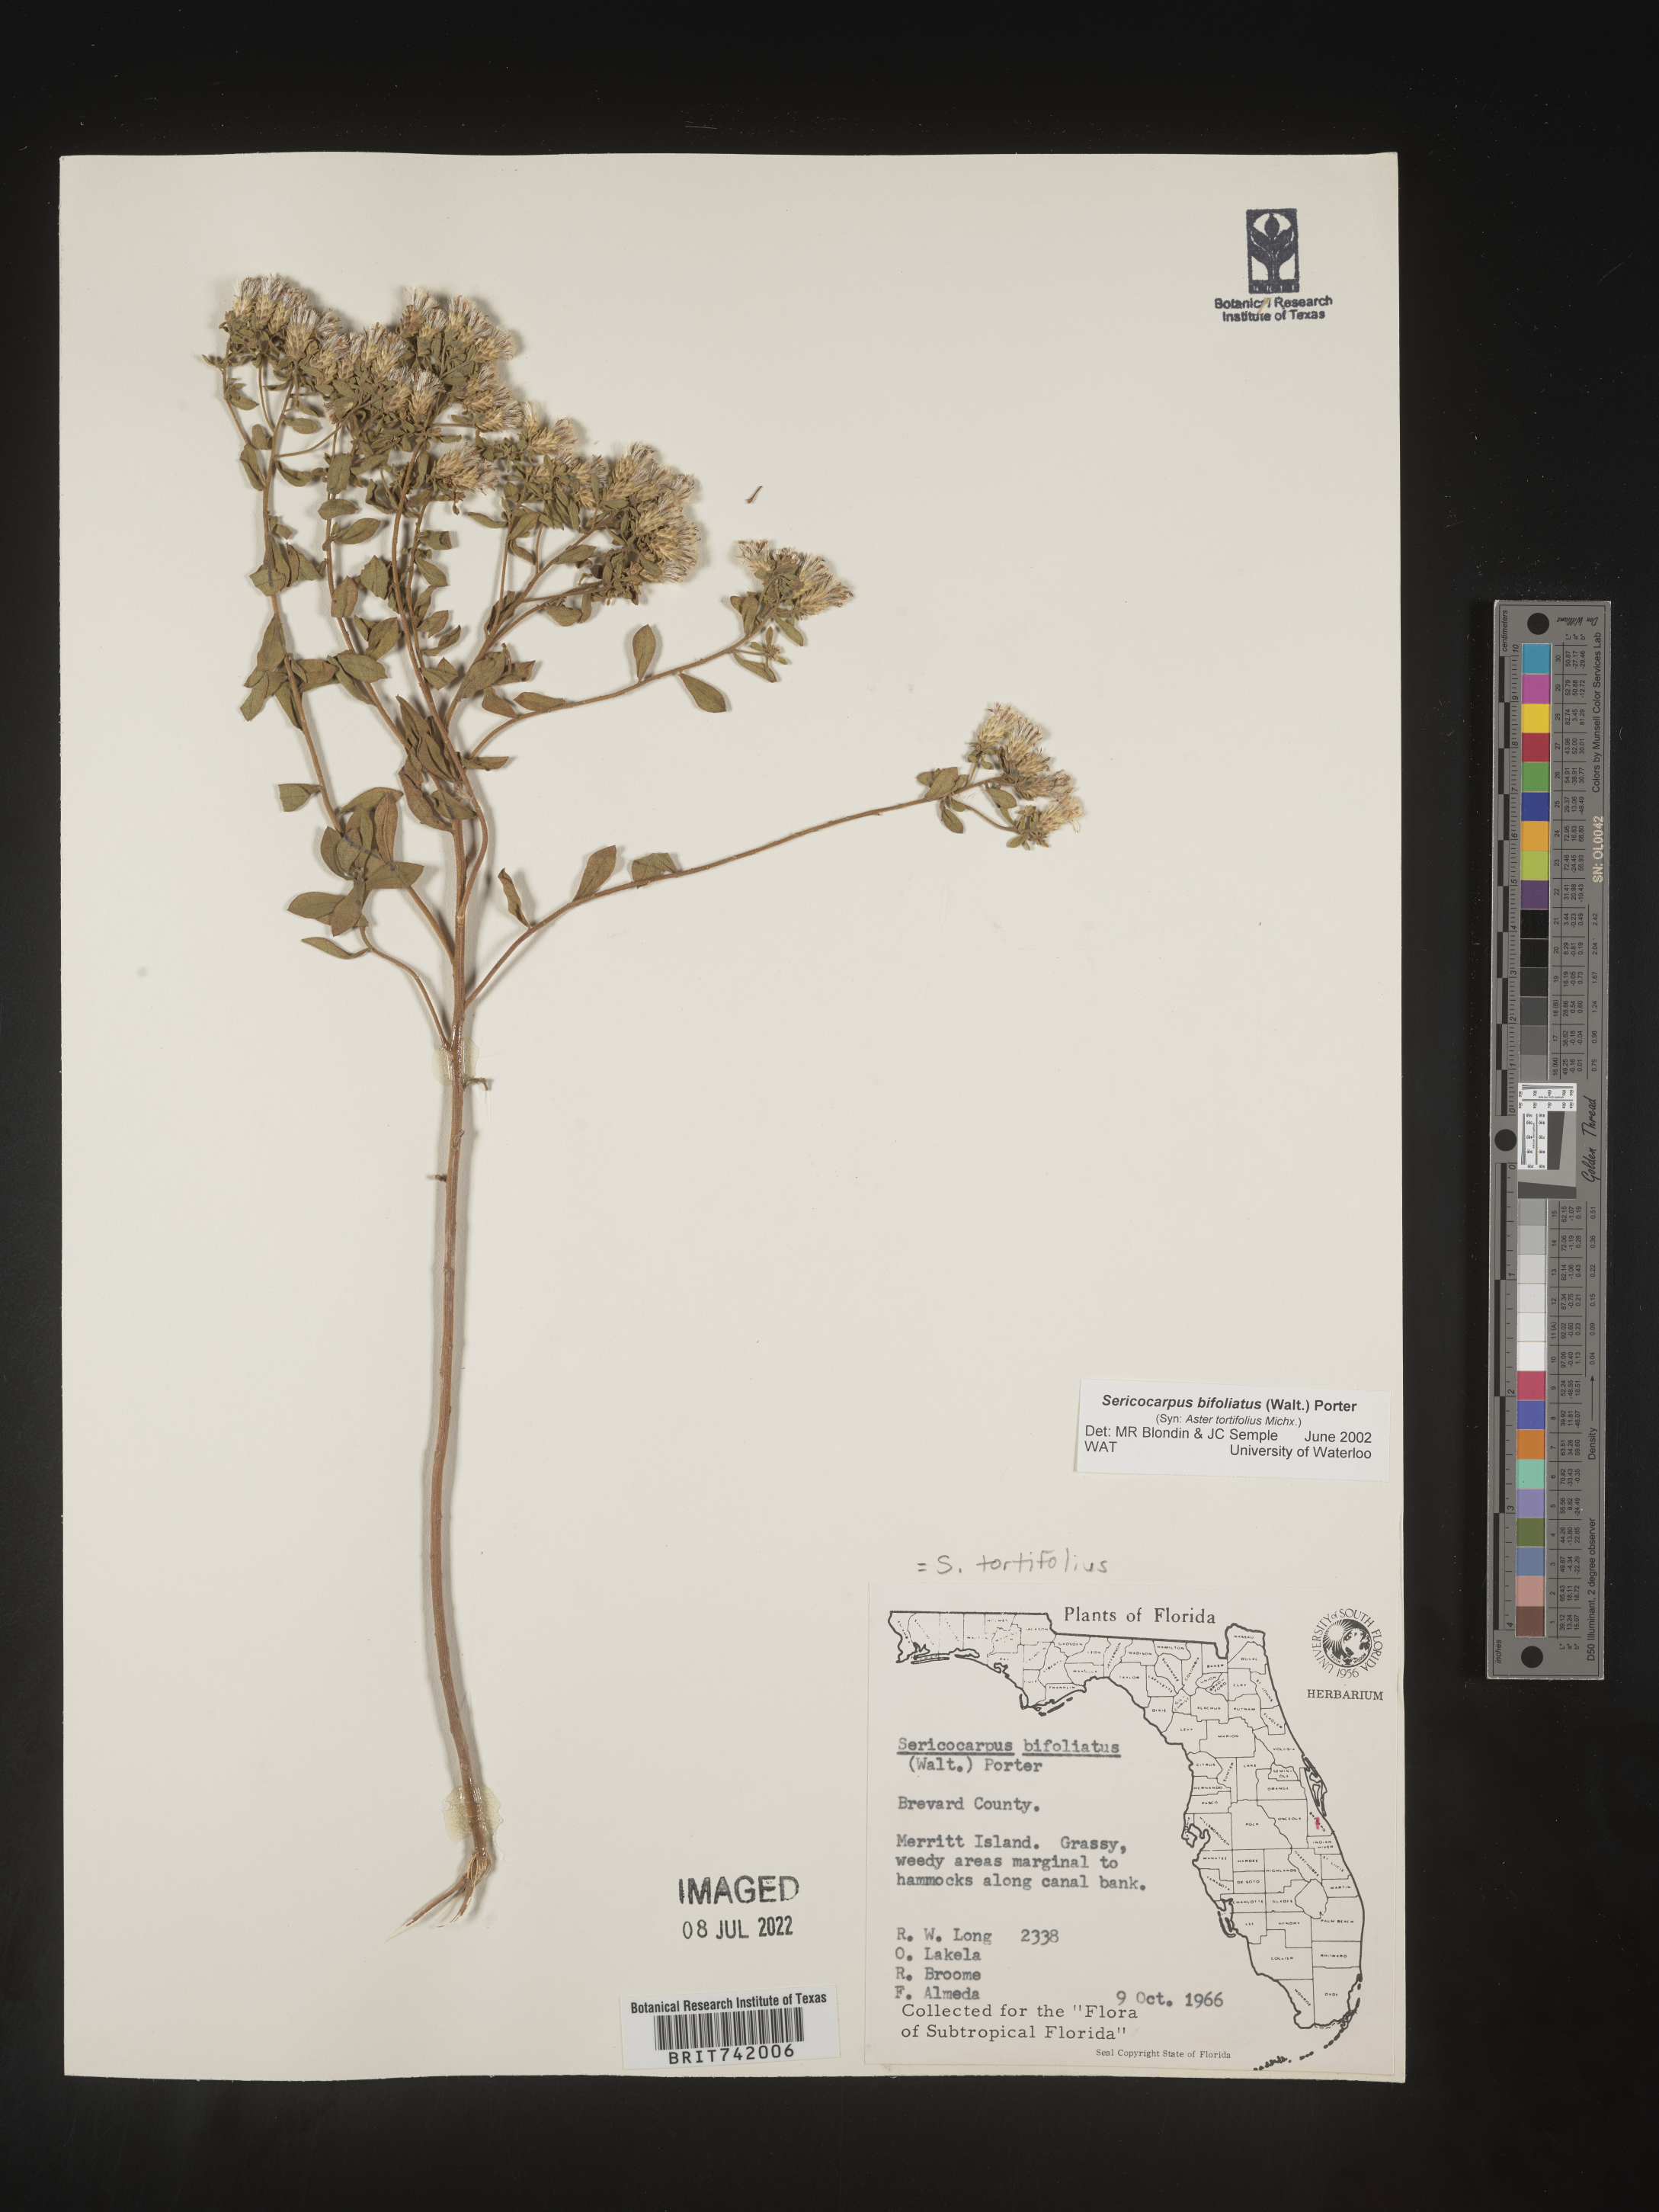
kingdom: Plantae
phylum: Tracheophyta
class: Magnoliopsida
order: Asterales
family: Asteraceae
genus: Sericocarpus
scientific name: Sericocarpus tortifolius
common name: Dixie aster
